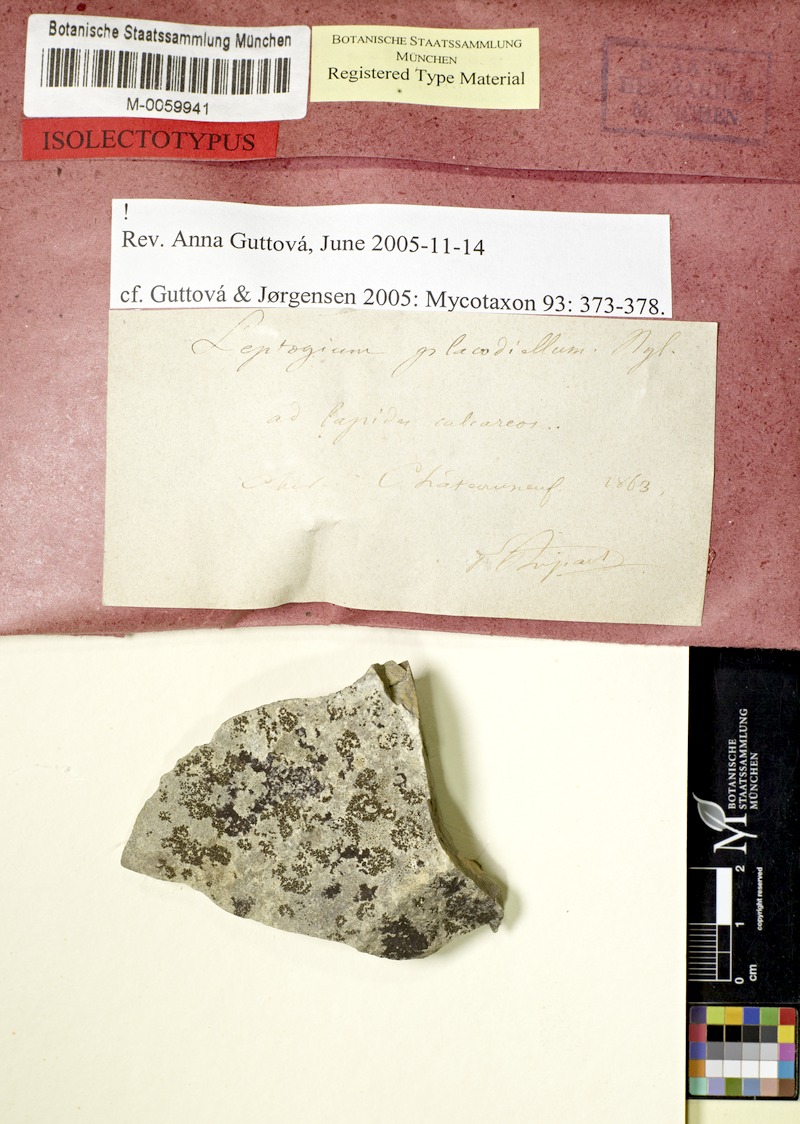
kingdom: Fungi
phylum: Ascomycota
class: Lecanoromycetes
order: Peltigerales
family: Collemataceae
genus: Pseudoleptogium
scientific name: Pseudoleptogium diffractum
